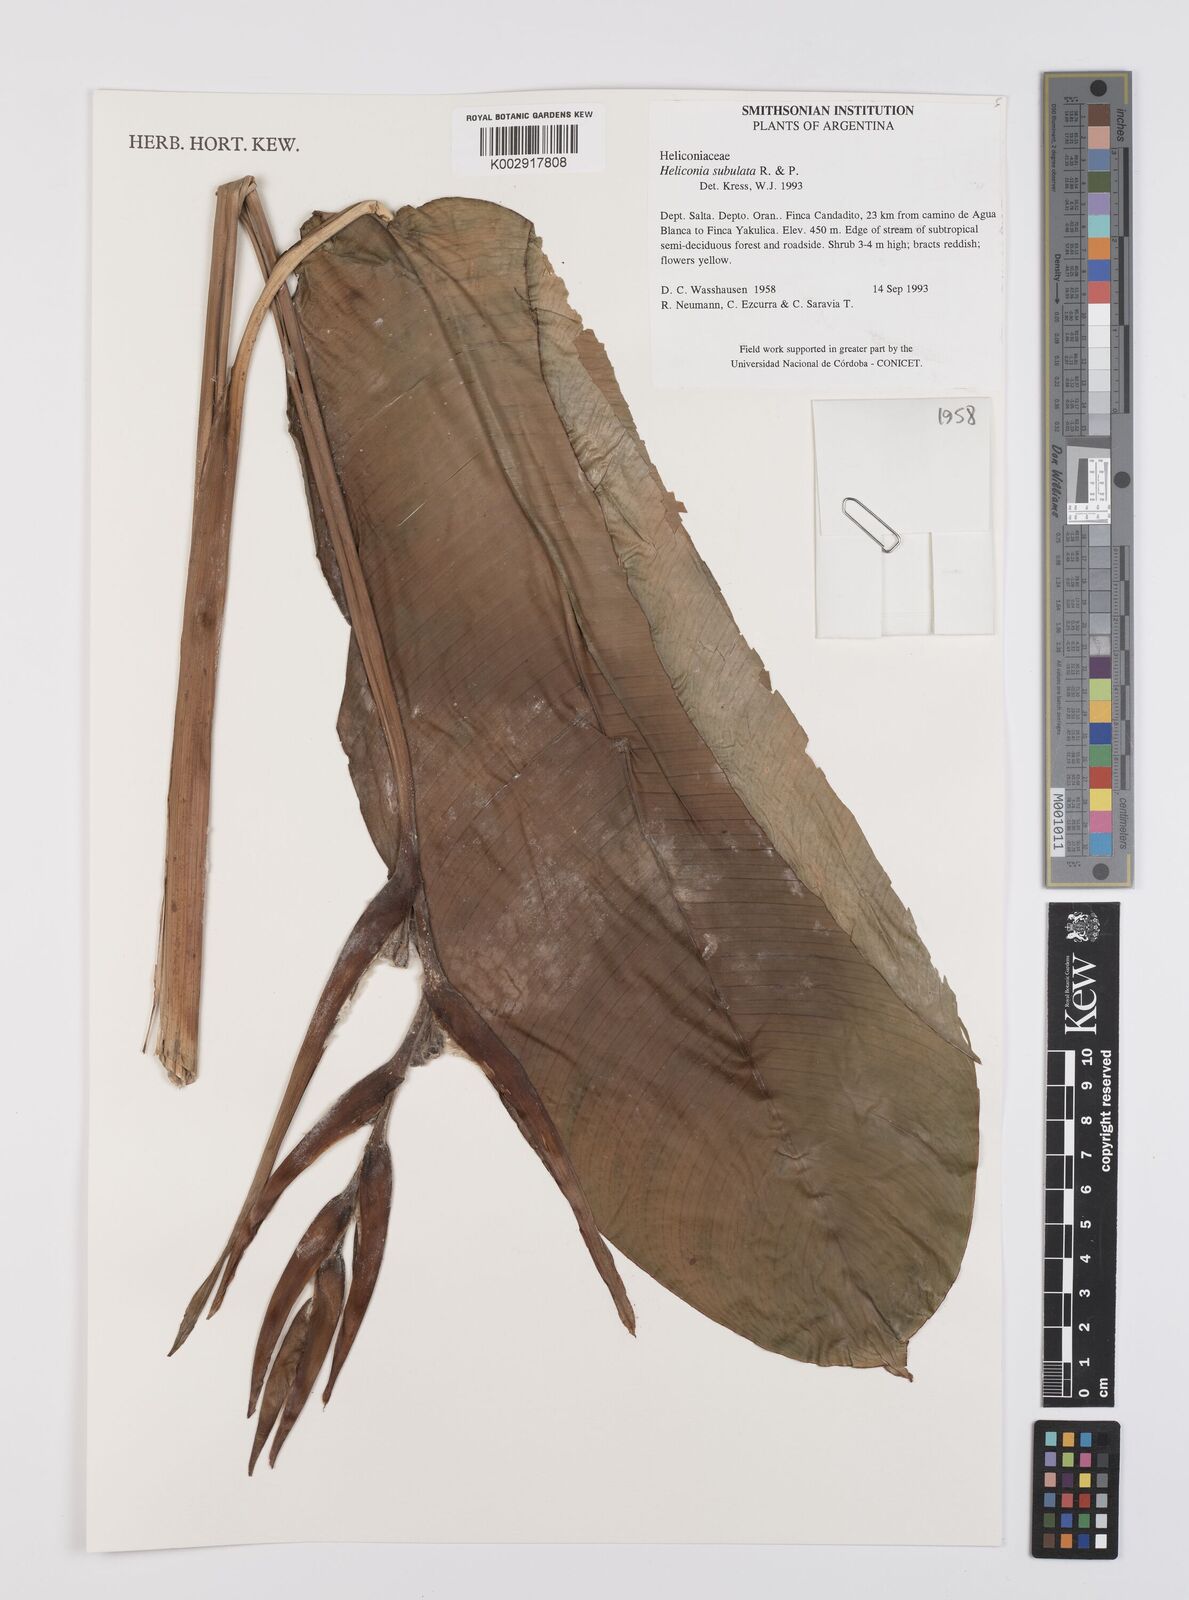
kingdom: Plantae
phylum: Tracheophyta
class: Liliopsida
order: Zingiberales
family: Heliconiaceae
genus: Heliconia
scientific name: Heliconia subulata
